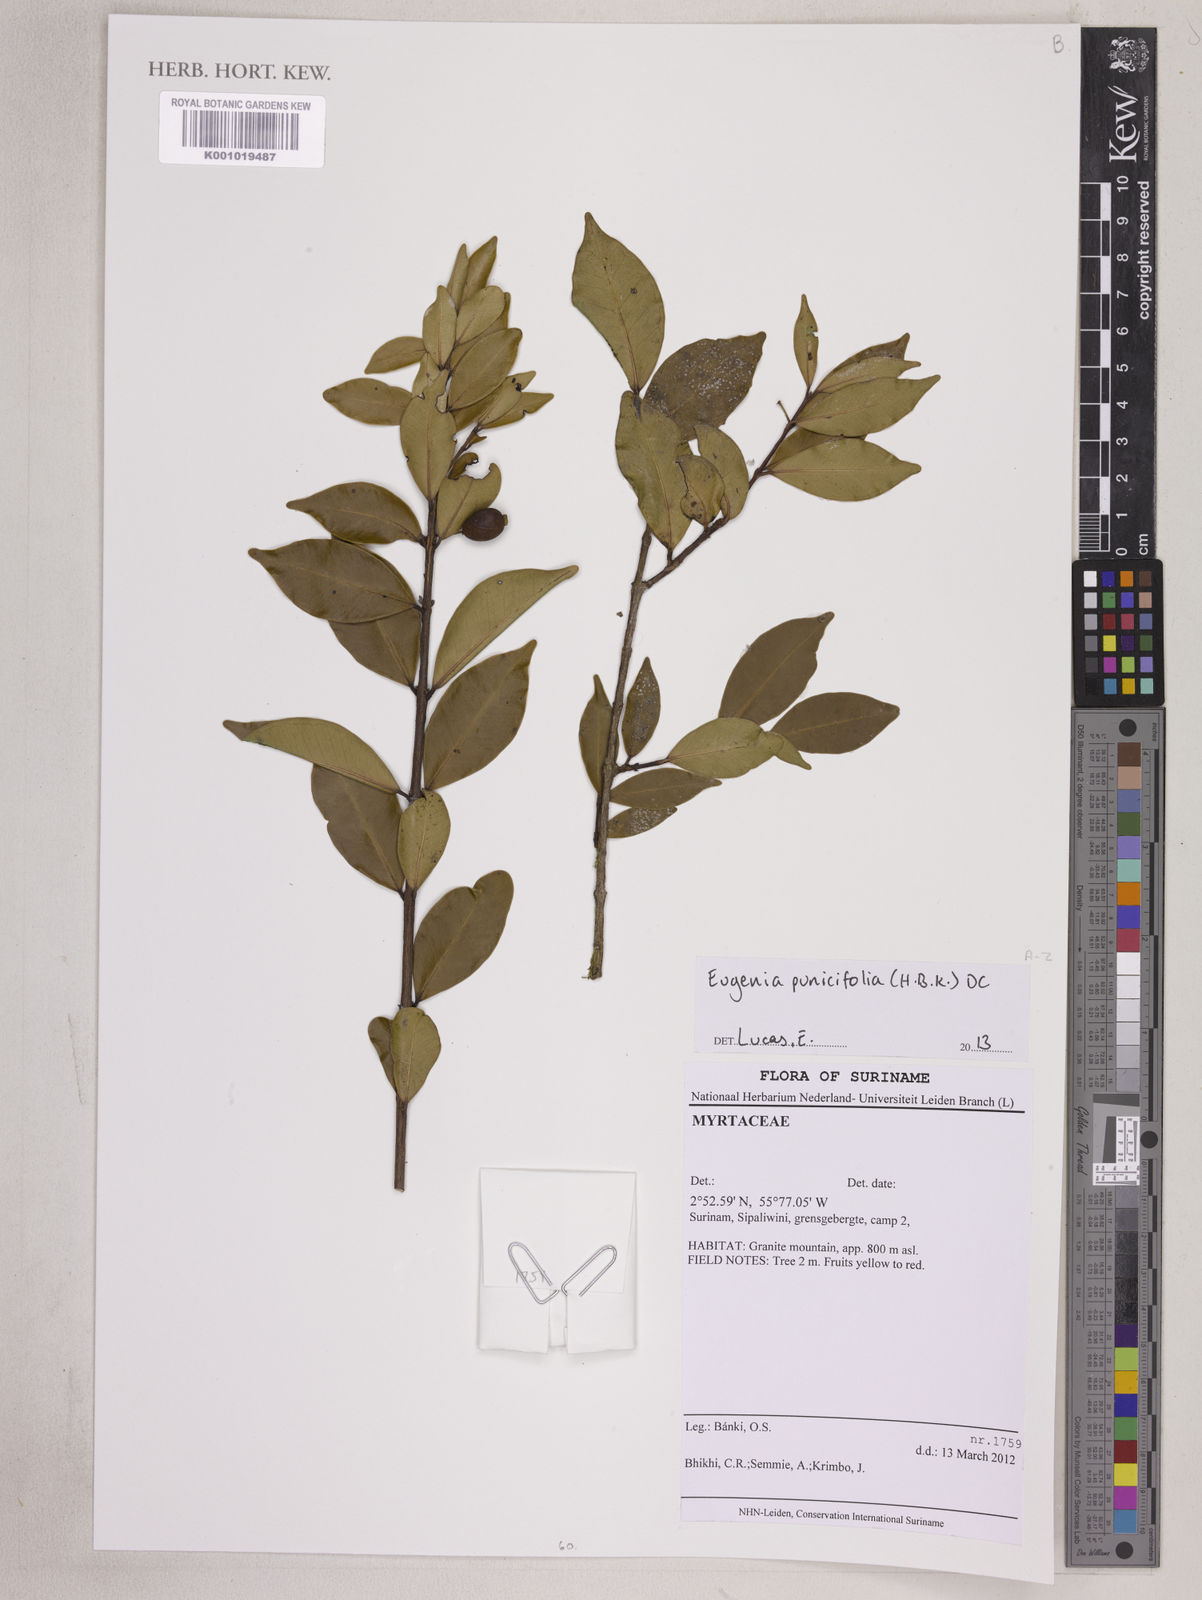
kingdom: Plantae
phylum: Tracheophyta
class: Magnoliopsida
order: Myrtales
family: Myrtaceae
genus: Eugenia
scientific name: Eugenia punicifolia
